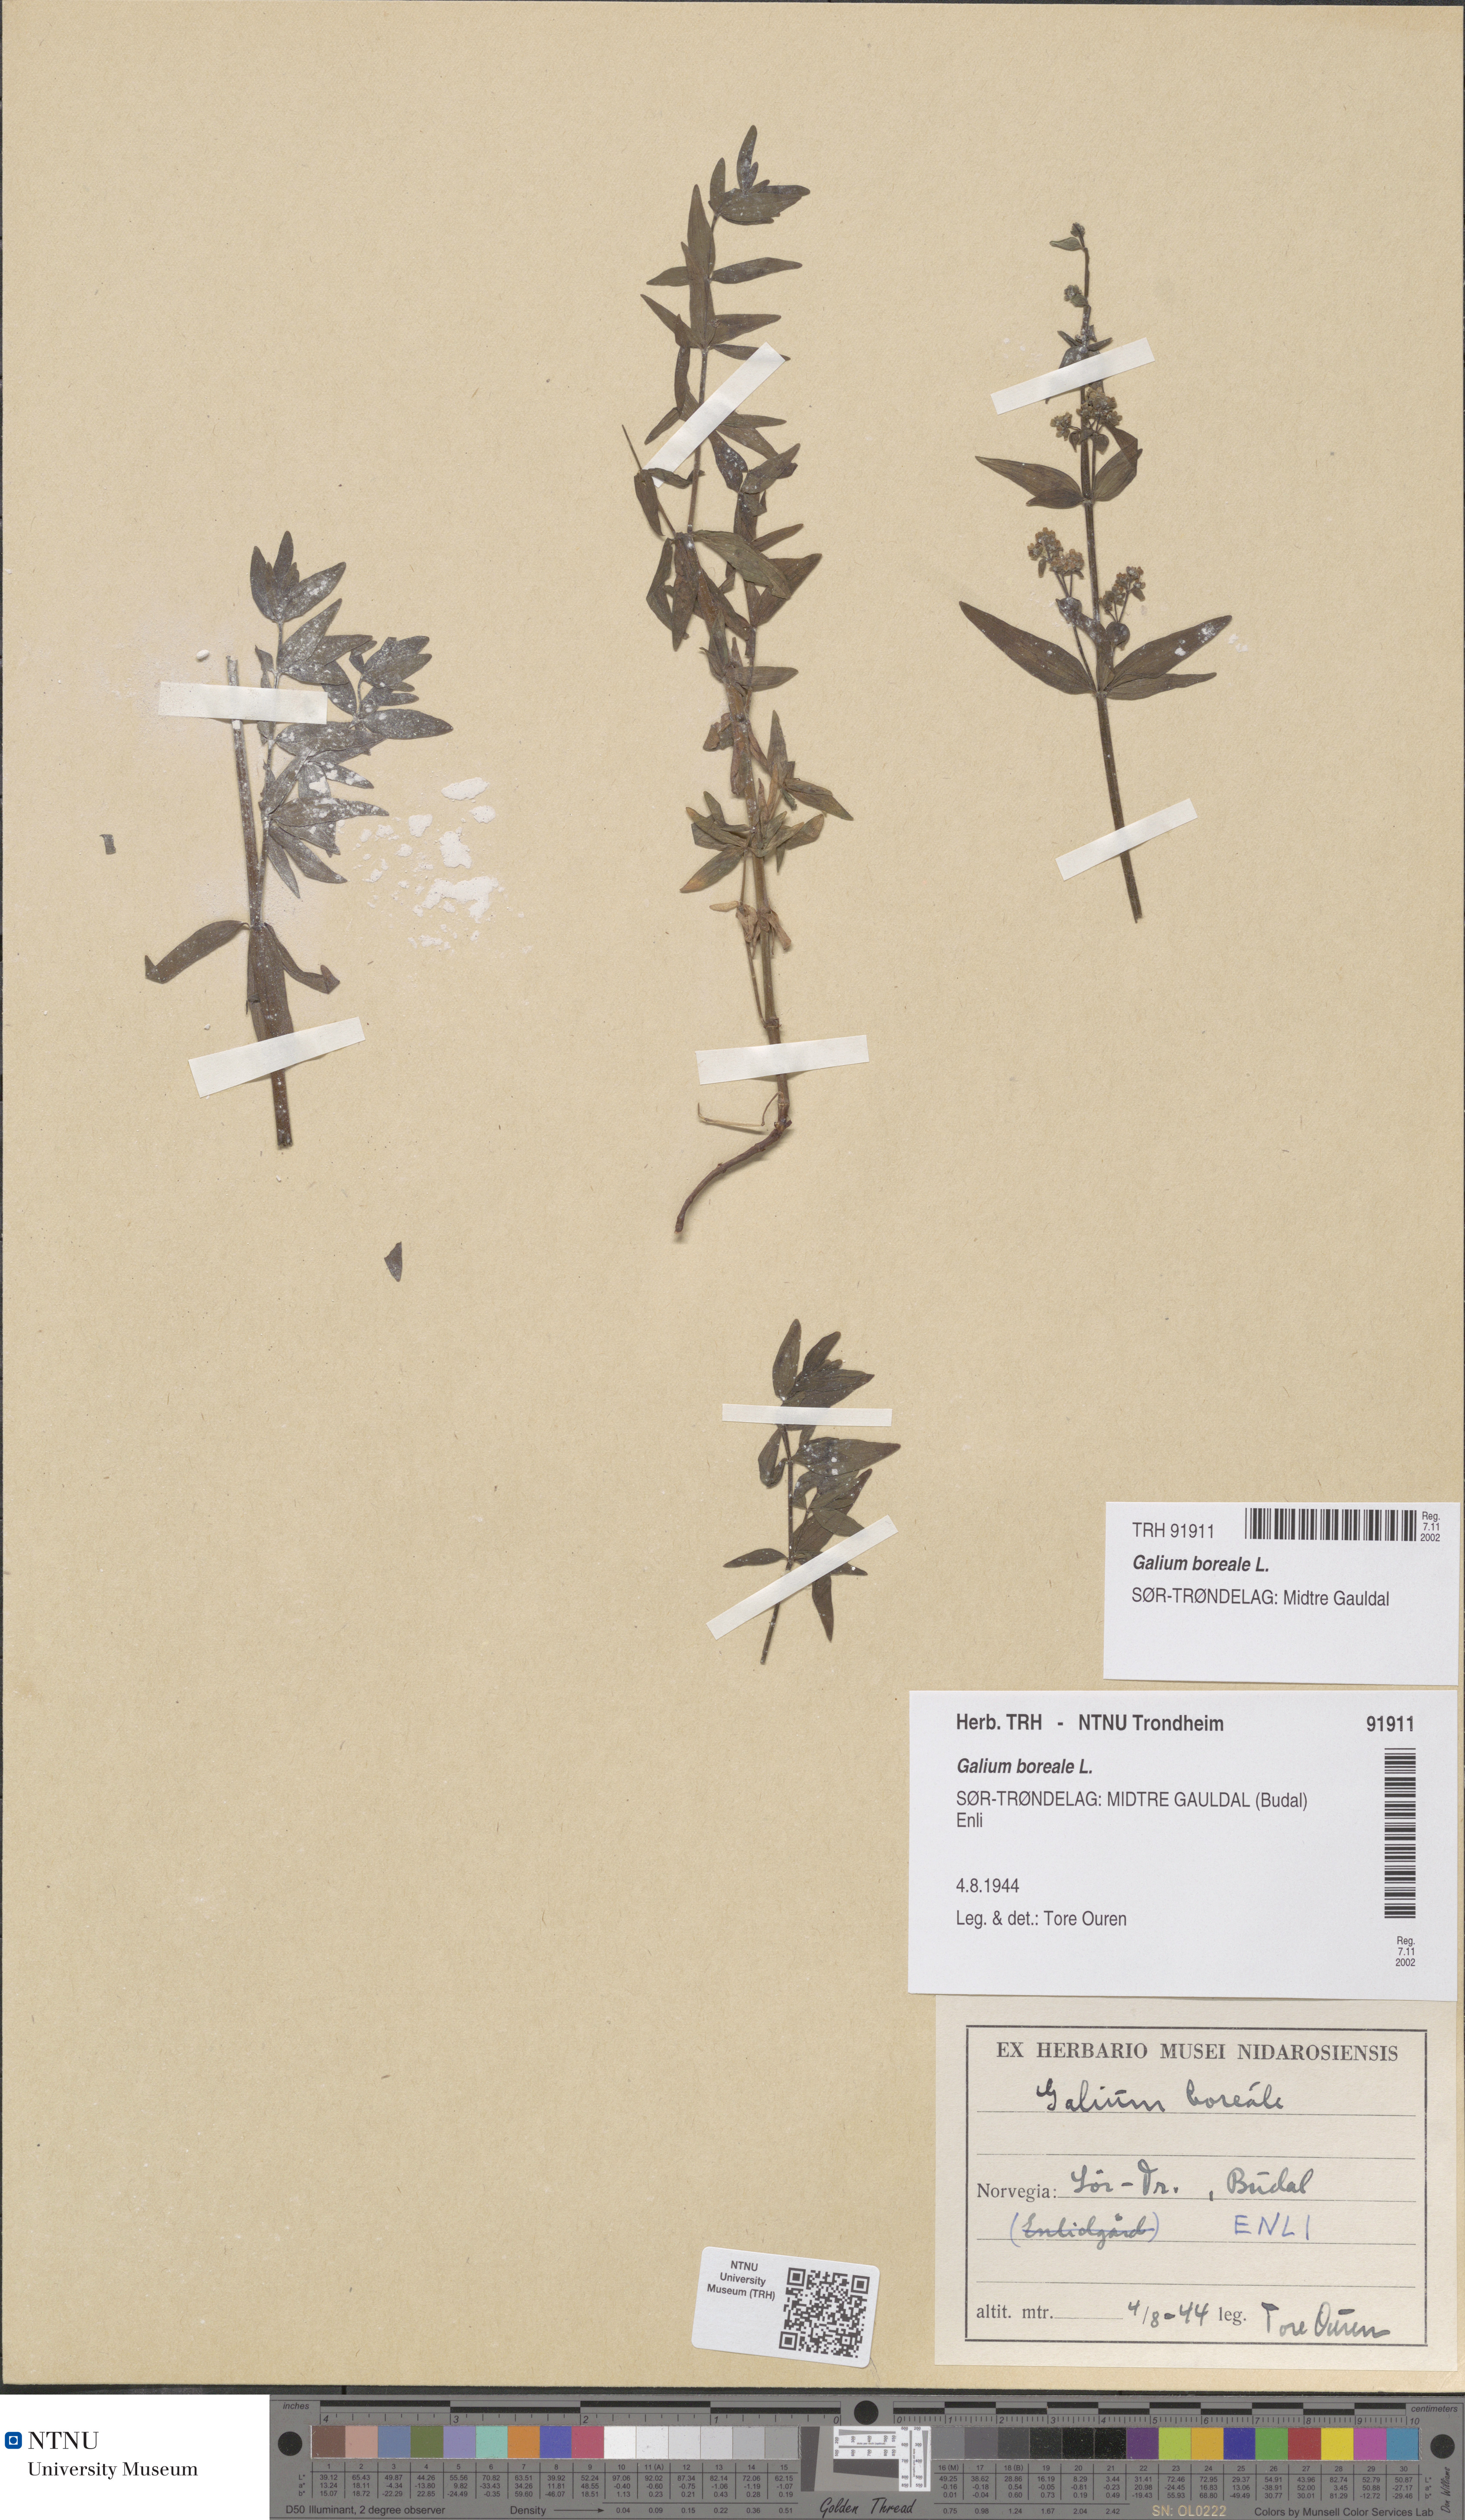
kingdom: Plantae
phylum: Tracheophyta
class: Magnoliopsida
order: Gentianales
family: Rubiaceae
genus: Galium
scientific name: Galium boreale
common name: Northern bedstraw
